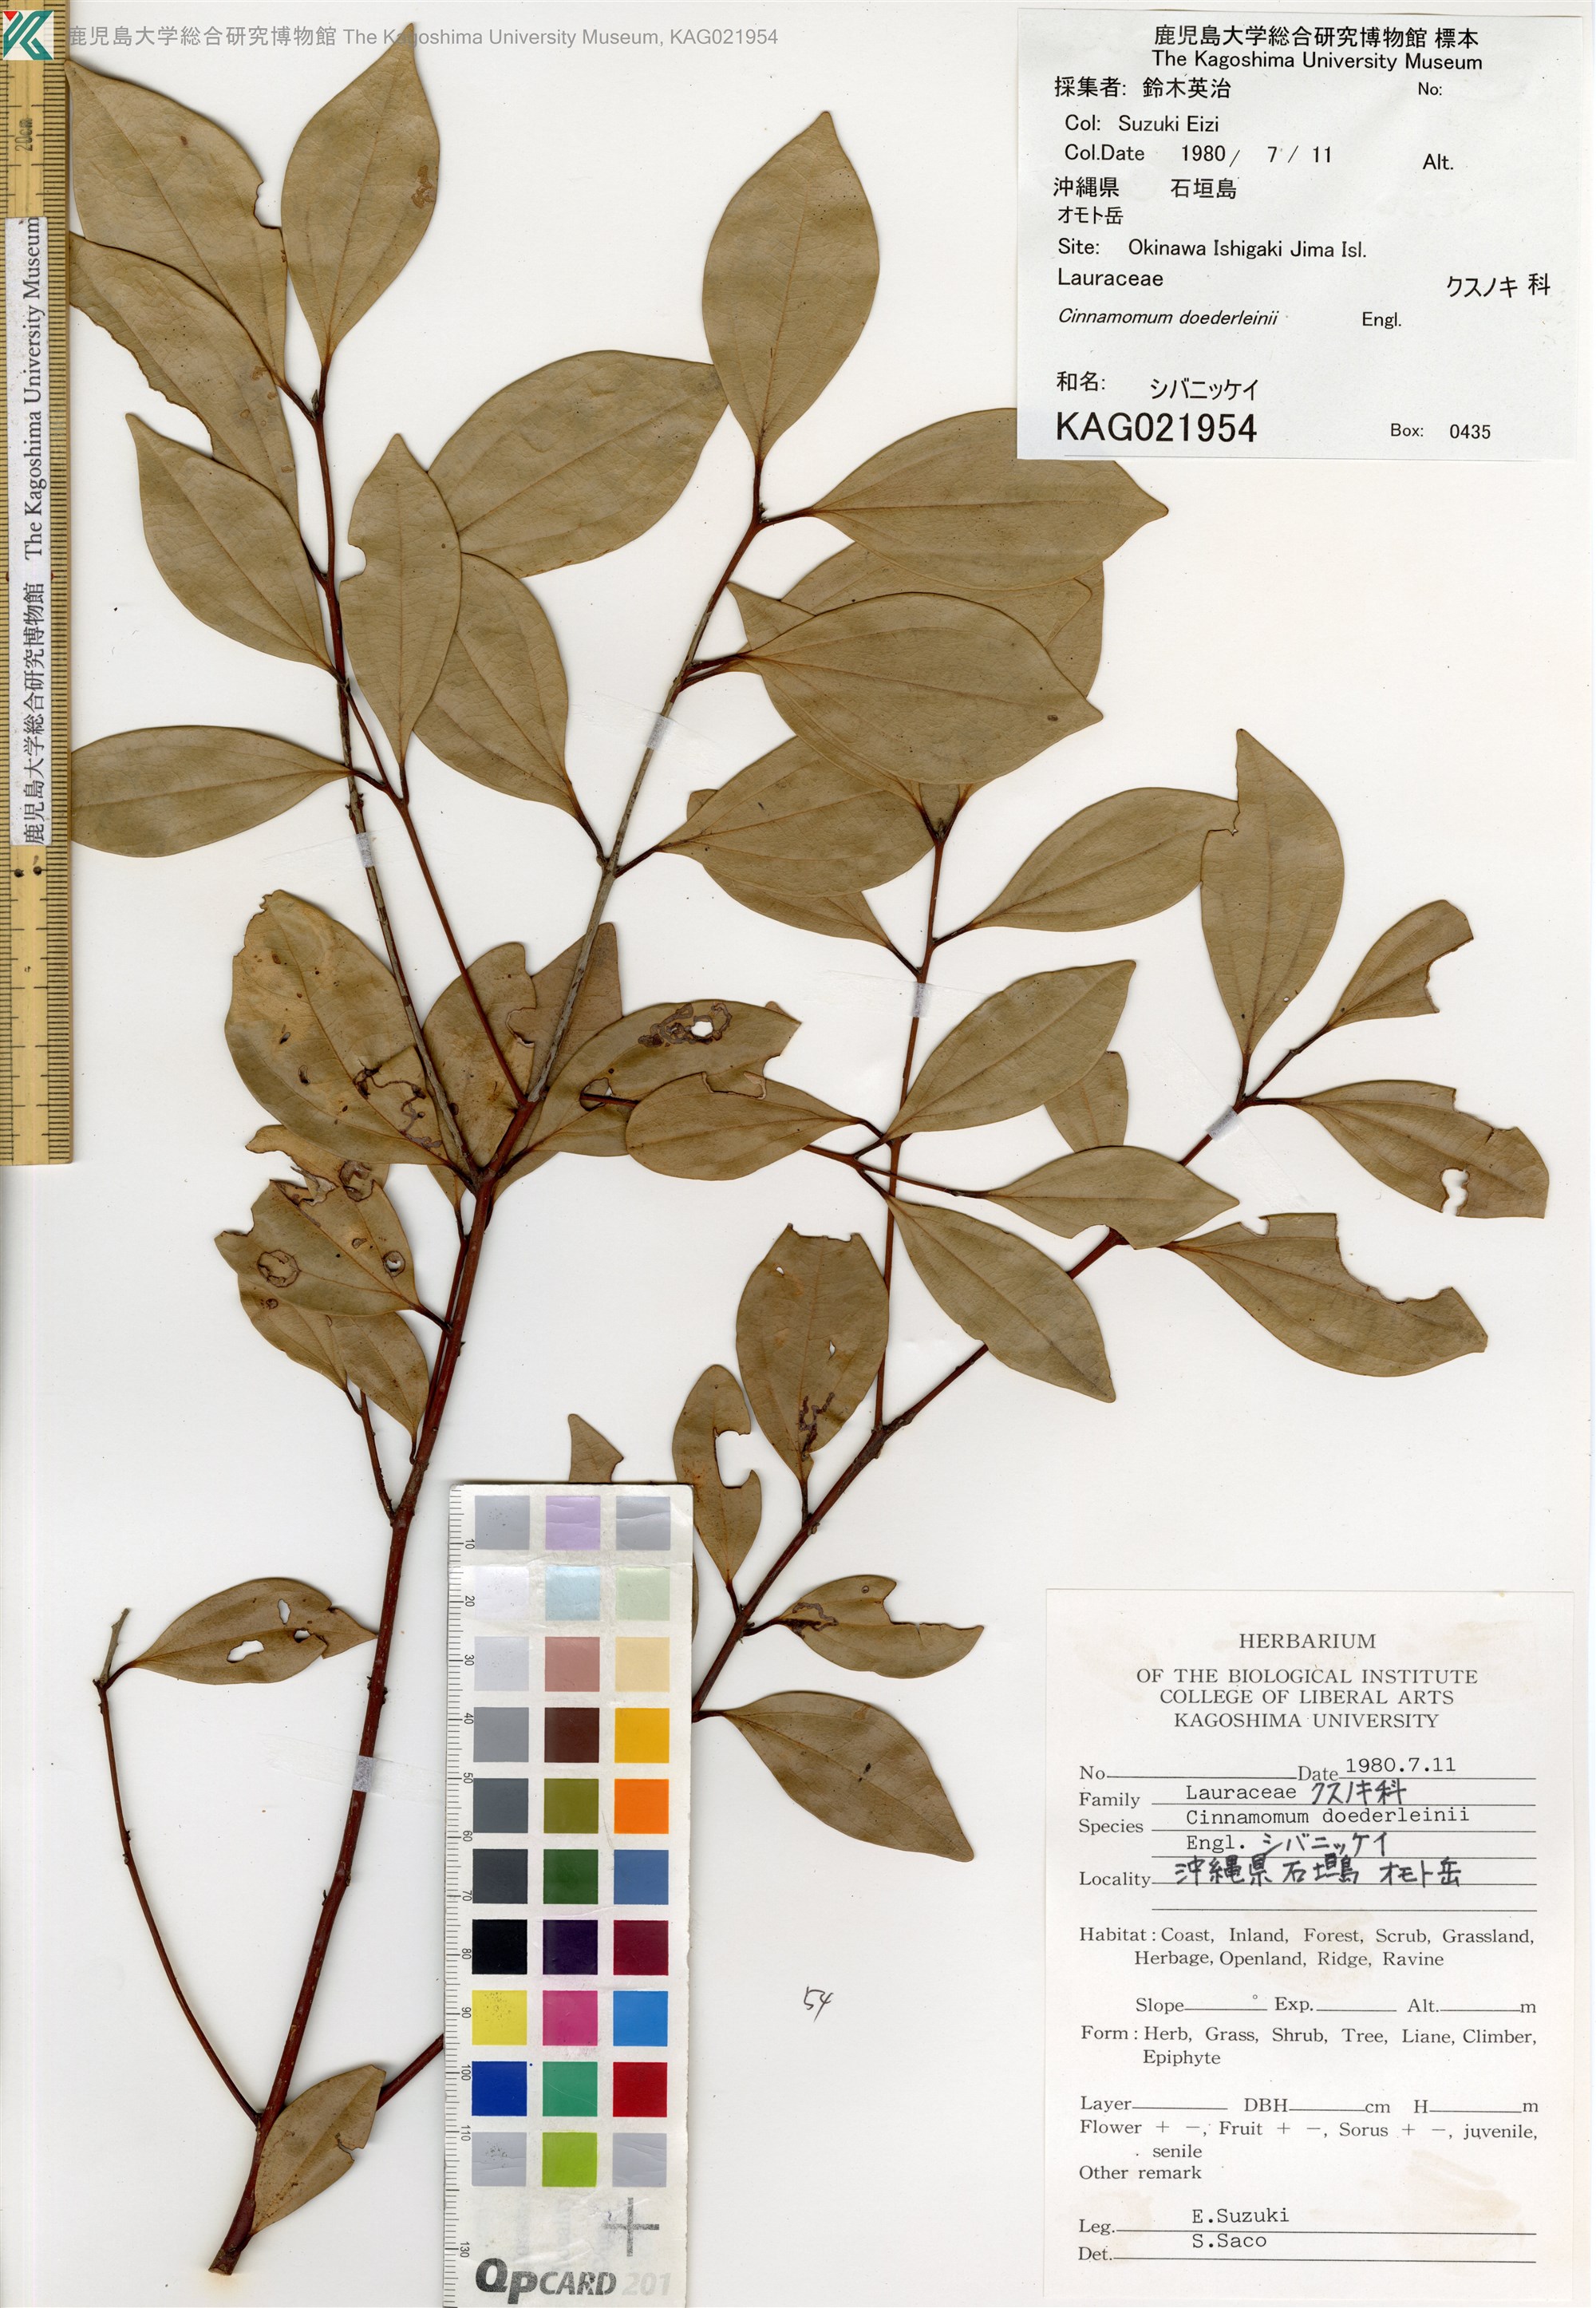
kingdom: Plantae
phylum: Tracheophyta
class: Magnoliopsida
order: Laurales
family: Lauraceae
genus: Cinnamomum
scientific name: Cinnamomum doederleinii
